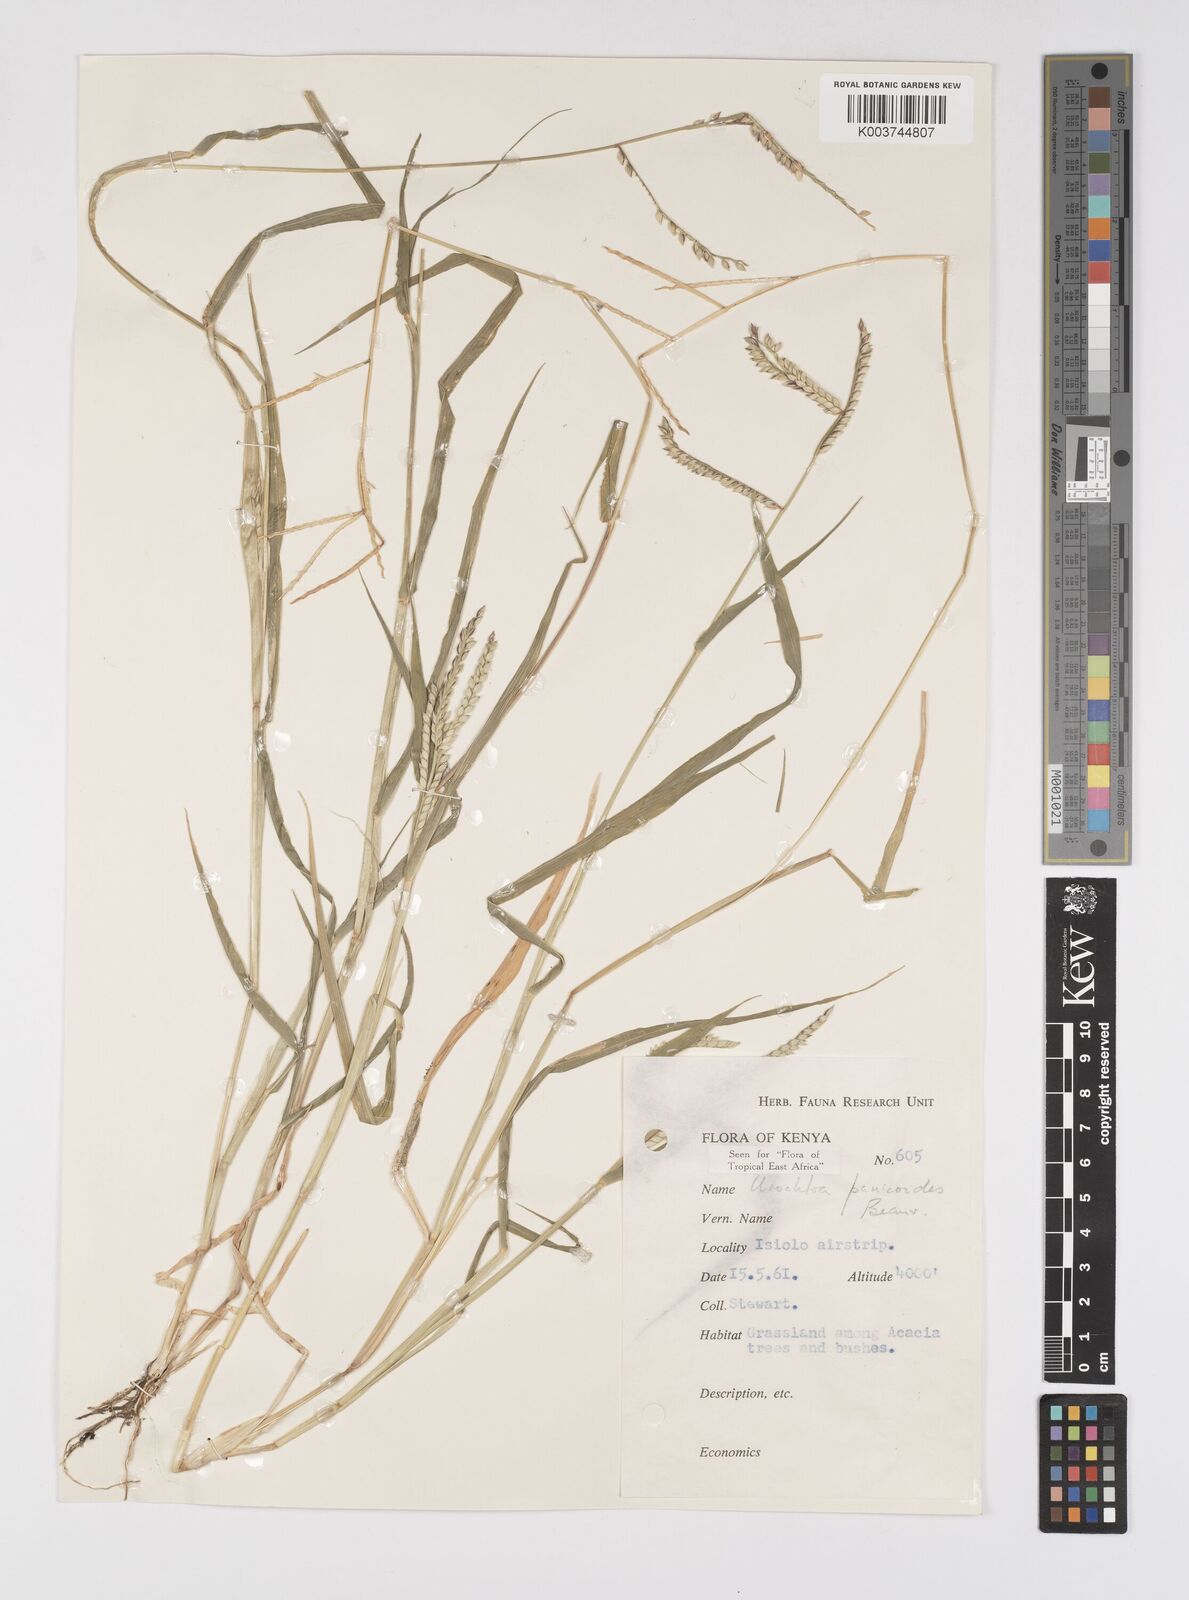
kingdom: Plantae
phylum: Tracheophyta
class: Liliopsida
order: Poales
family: Poaceae
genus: Urochloa
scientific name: Urochloa panicoides
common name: Sharp-flowered signal-grass
